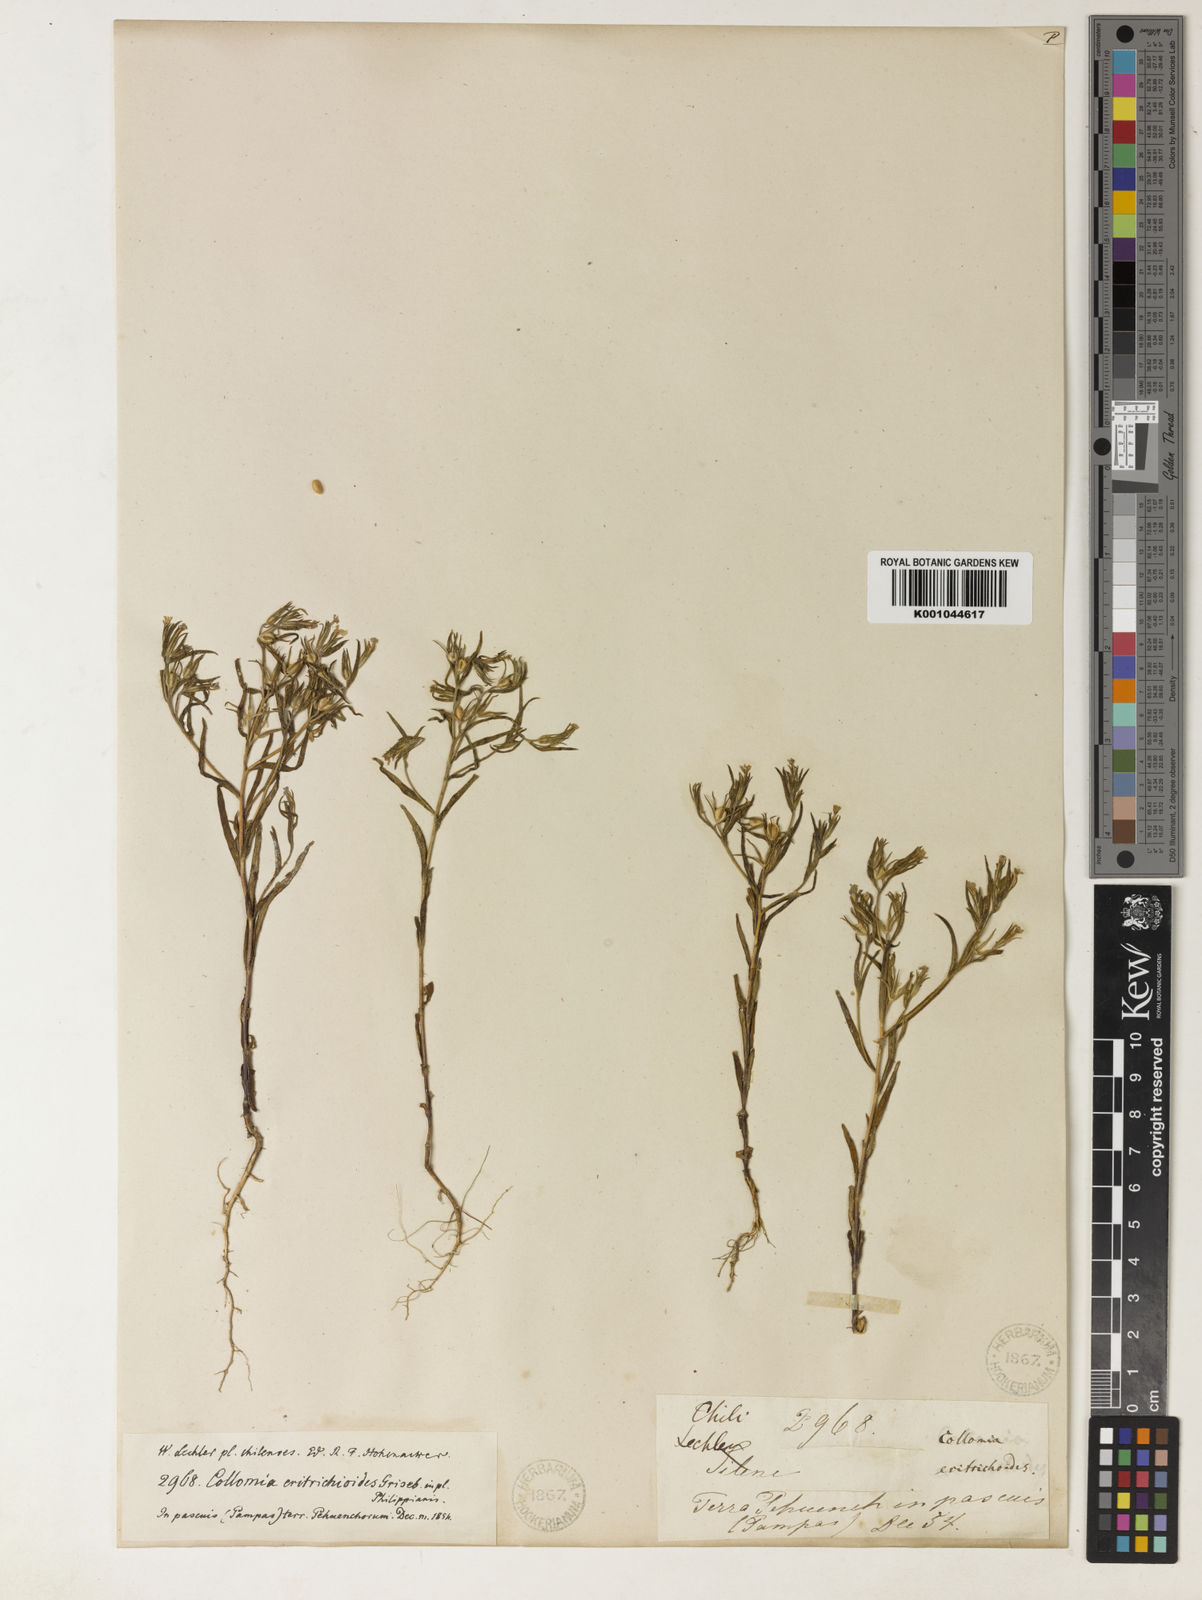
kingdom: Plantae
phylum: Tracheophyta
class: Magnoliopsida
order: Ericales
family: Polemoniaceae
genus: Phlox
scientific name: Phlox gracilis
